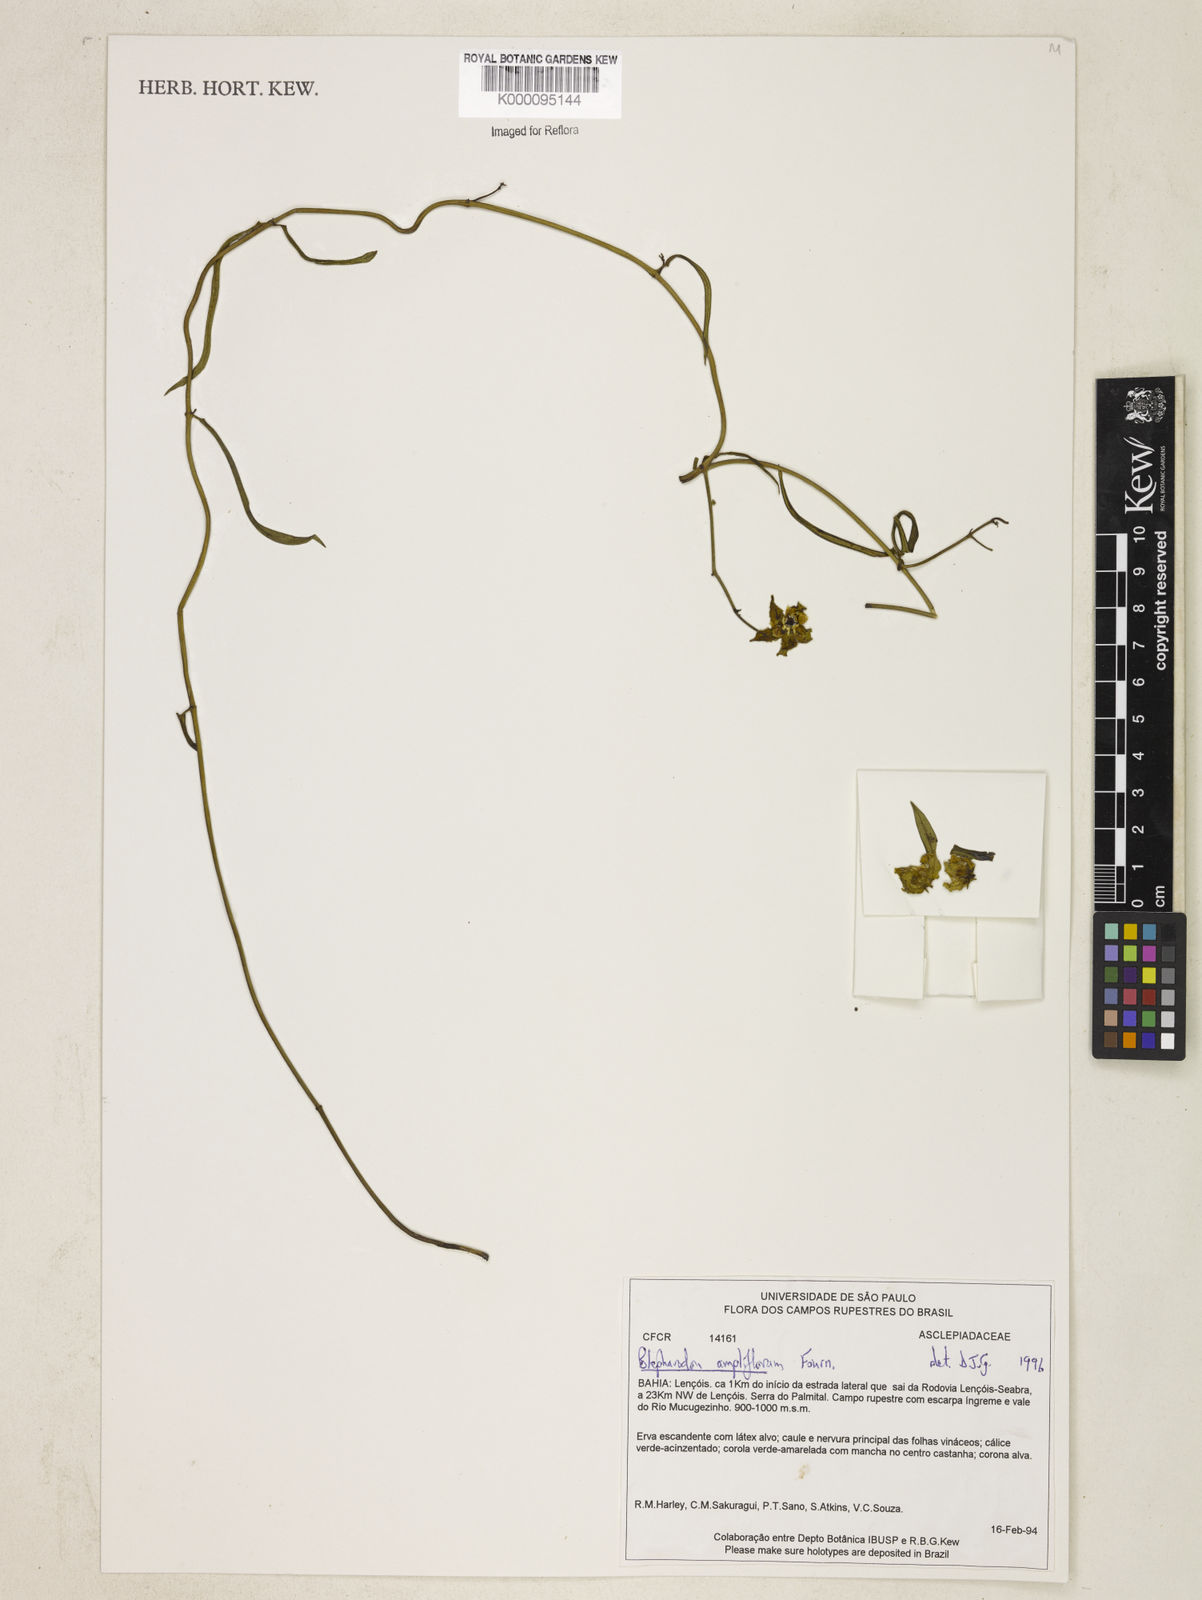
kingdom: Plantae
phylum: Tracheophyta
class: Magnoliopsida
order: Gentianales
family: Apocynaceae
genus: Blepharodon
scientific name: Blepharodon ampliflorum
